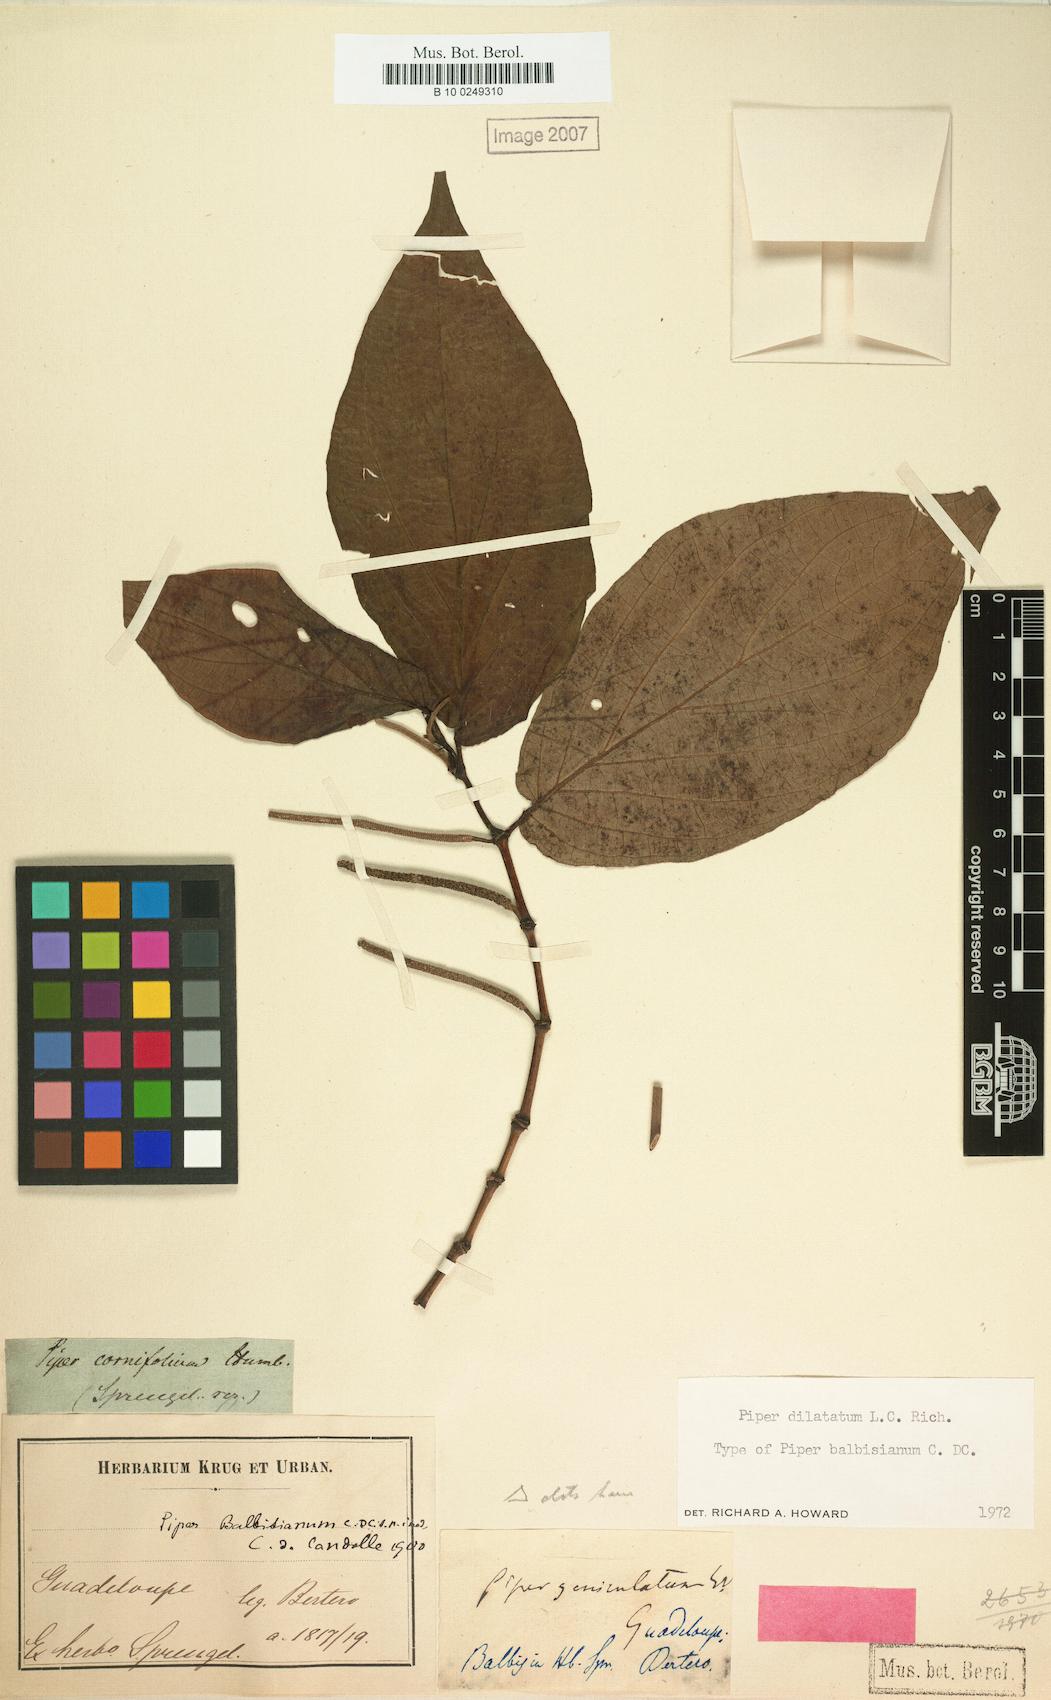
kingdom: Plantae
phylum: Tracheophyta
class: Magnoliopsida
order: Piperales
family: Piperaceae
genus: Piper
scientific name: Piper dilatatum
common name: Higuillo
